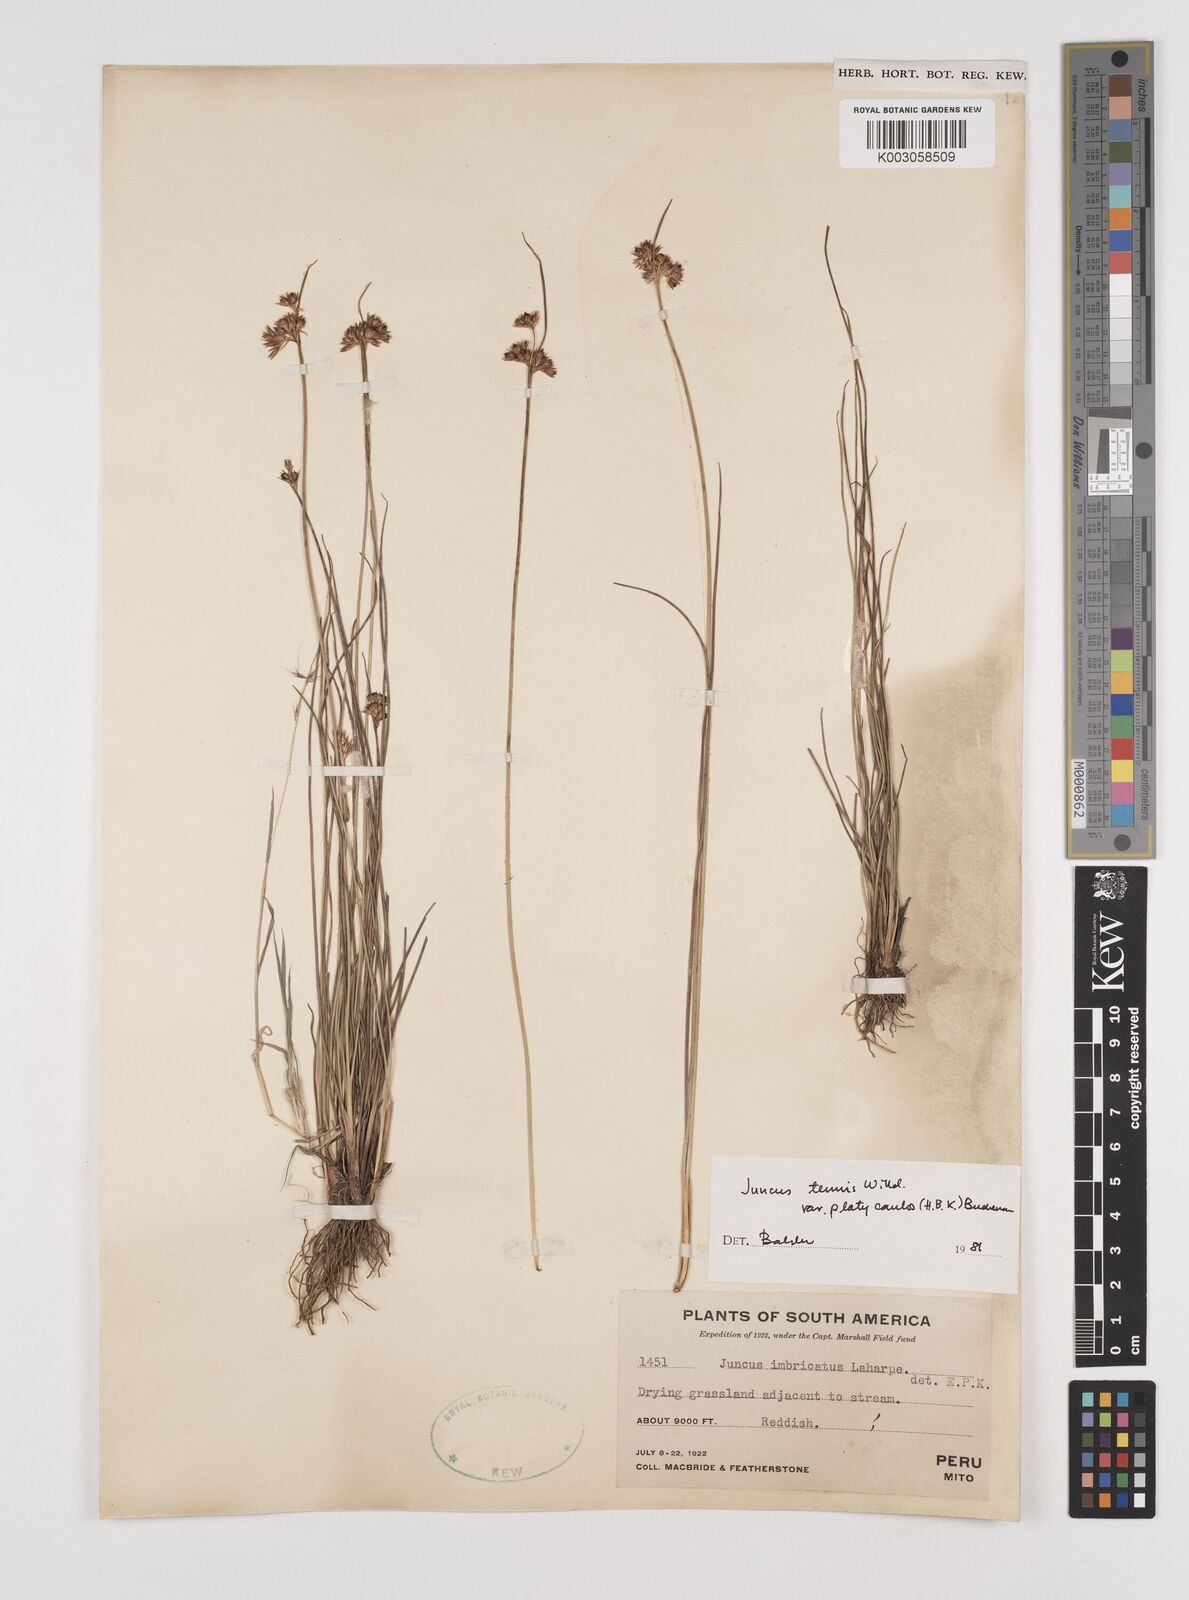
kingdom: Plantae
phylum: Tracheophyta
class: Liliopsida
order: Poales
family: Juncaceae
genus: Juncus
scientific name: Juncus dudleyi
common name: Dudley's rush
